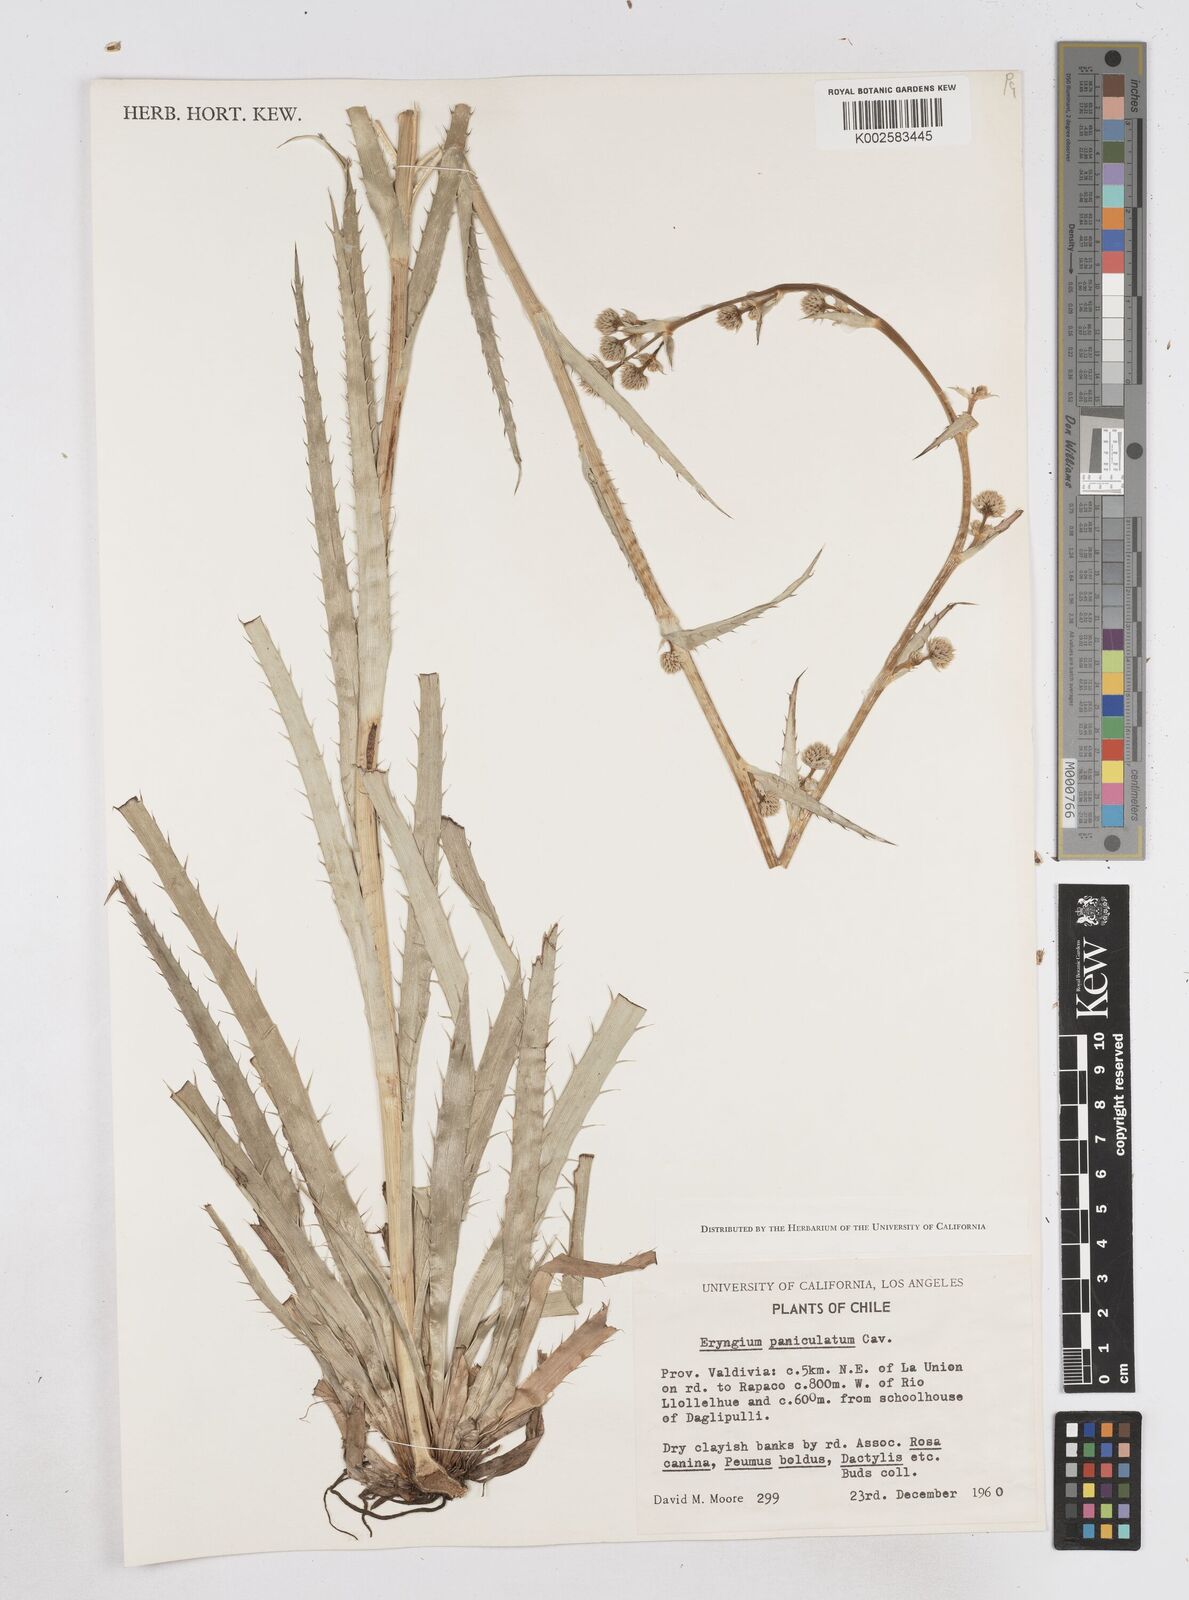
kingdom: Plantae
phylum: Tracheophyta
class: Magnoliopsida
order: Apiales
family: Apiaceae
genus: Eryngium
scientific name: Eryngium humboldtii
